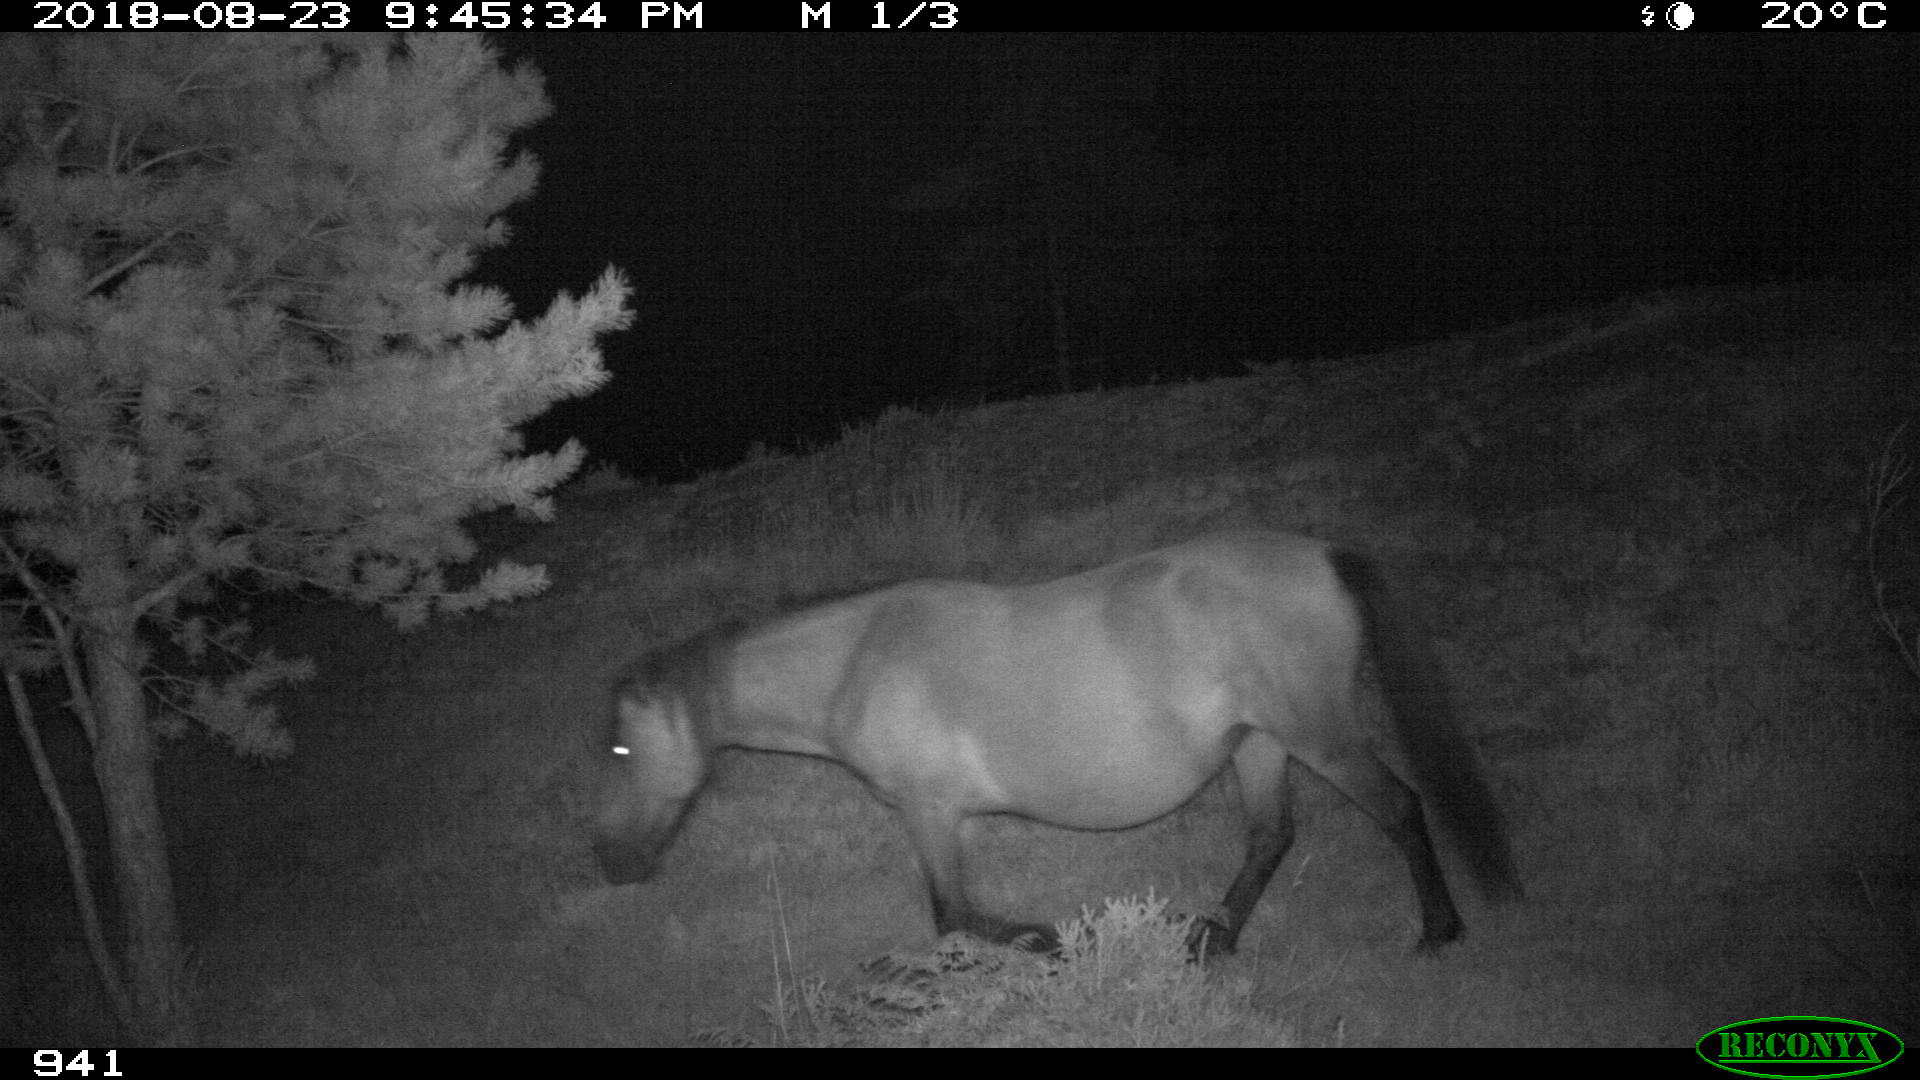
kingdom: Animalia
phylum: Chordata
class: Mammalia
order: Perissodactyla
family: Equidae
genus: Equus
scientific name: Equus caballus
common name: Horse
